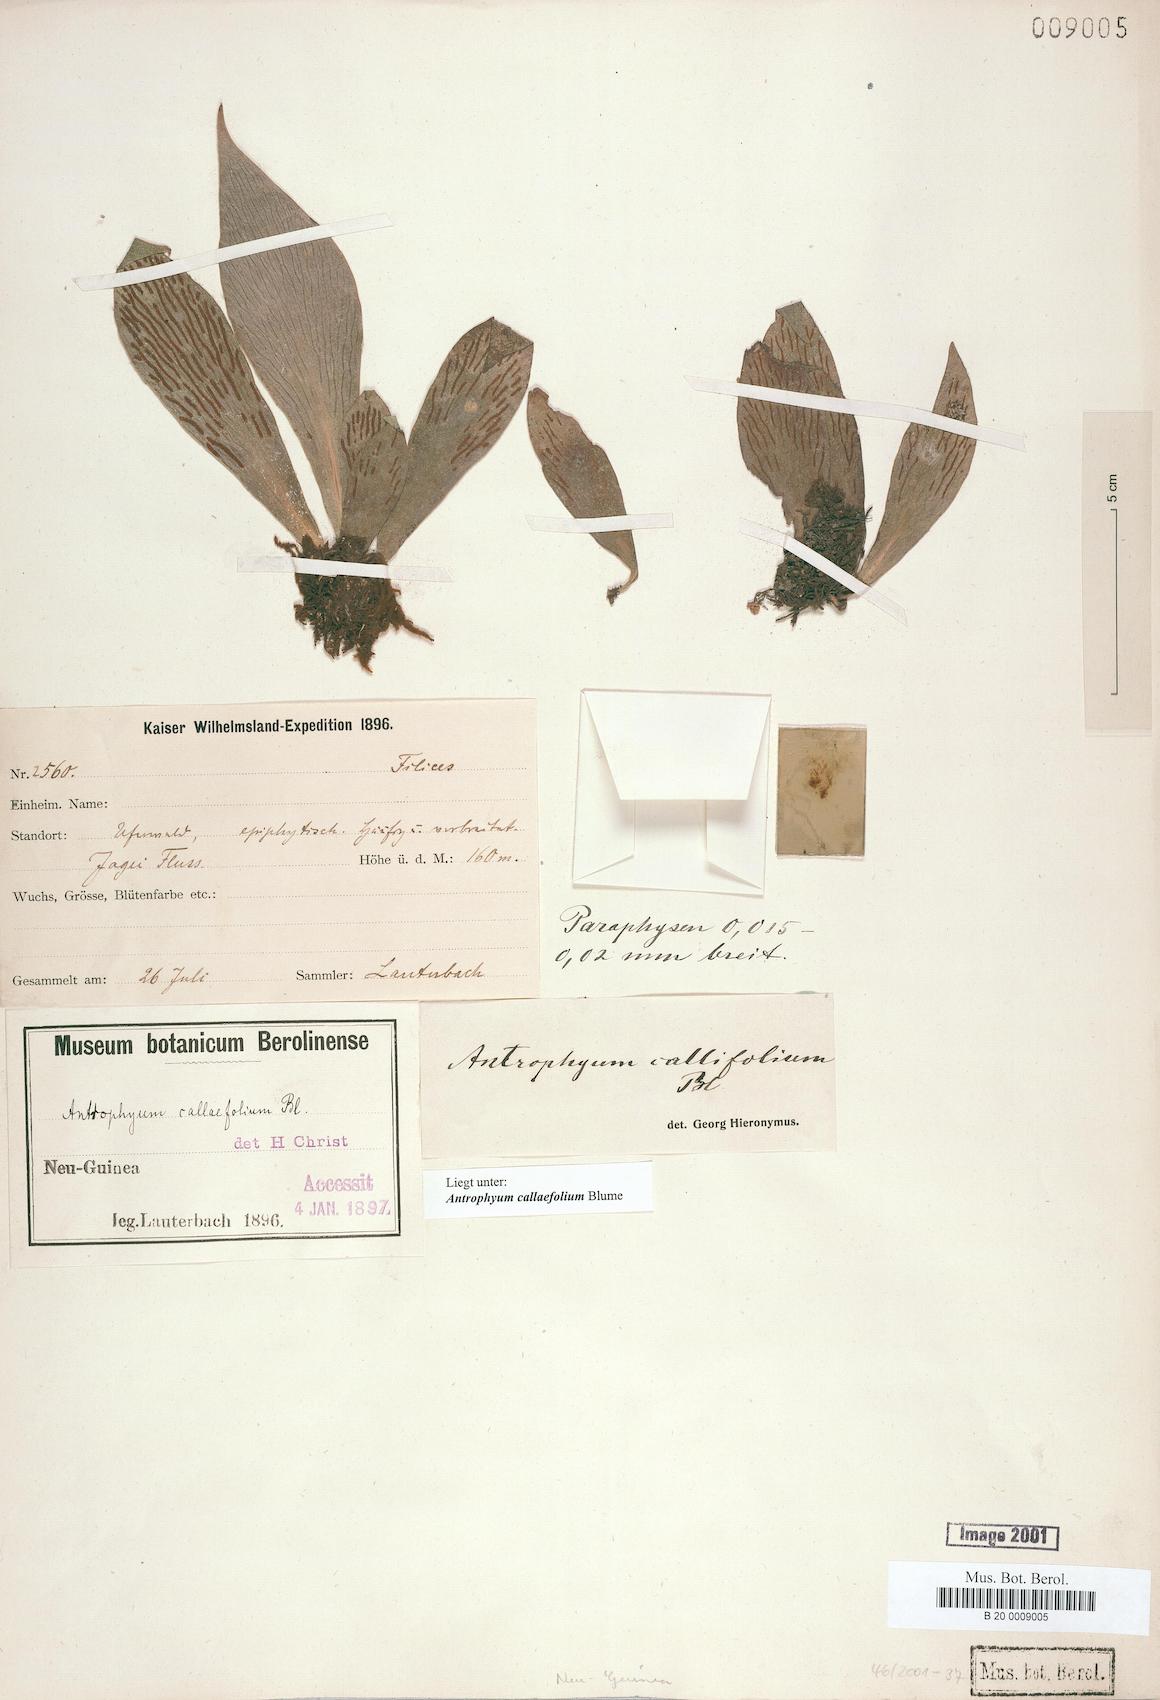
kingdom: Plantae
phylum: Tracheophyta
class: Polypodiopsida
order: Polypodiales
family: Pteridaceae
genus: Antrophyum
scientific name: Antrophyum callifolium
